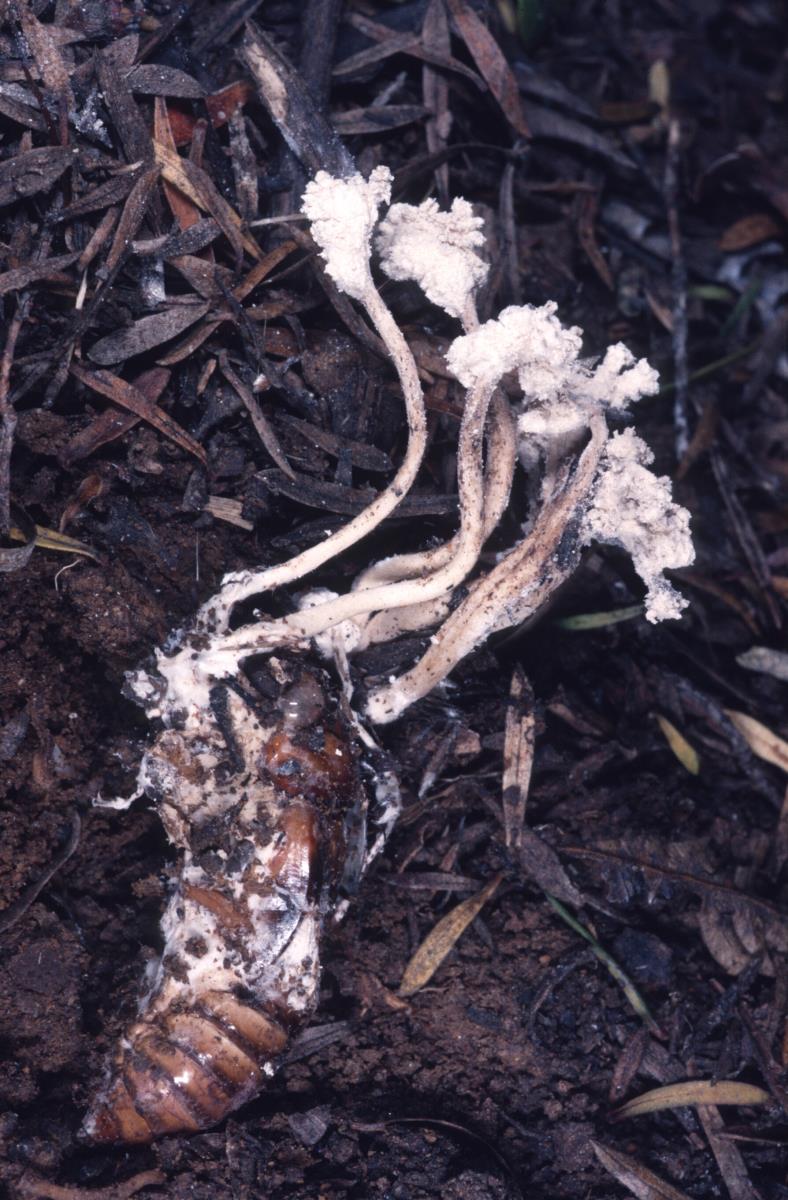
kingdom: Fungi
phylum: Ascomycota
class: Sordariomycetes
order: Hypocreales
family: Cordycipitaceae
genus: Isaria
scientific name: Isaria
